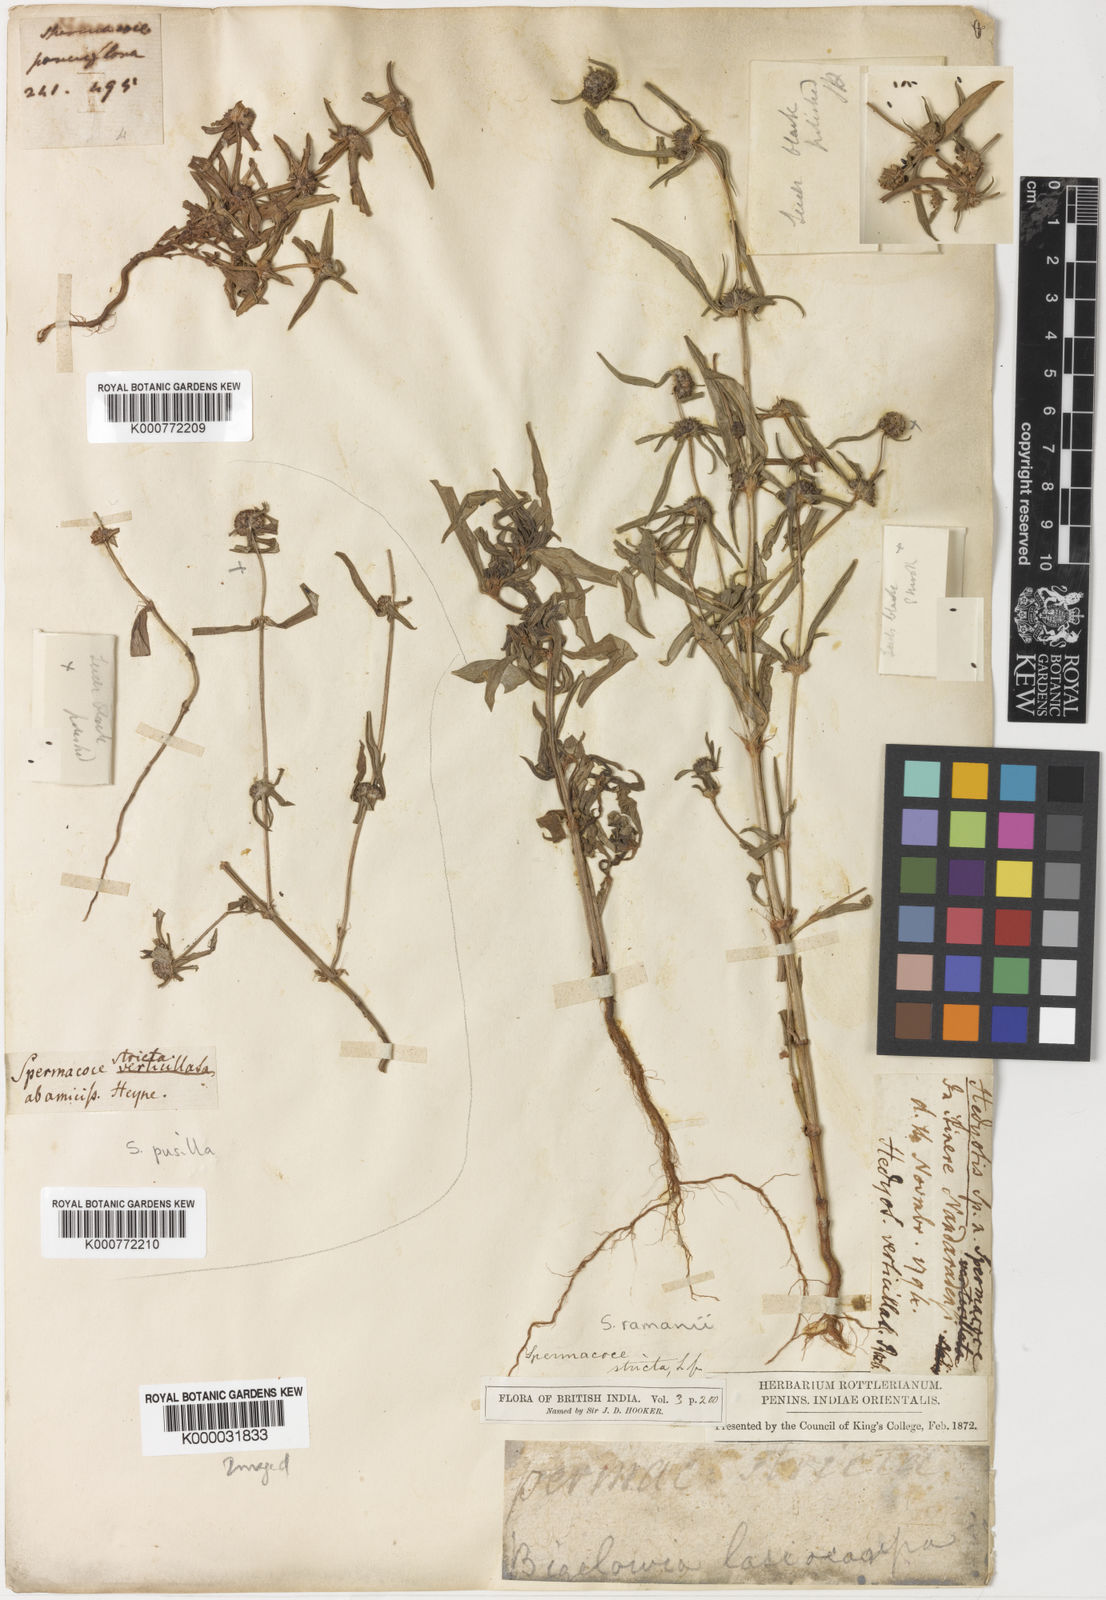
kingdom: Plantae
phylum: Tracheophyta
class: Magnoliopsida
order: Gentianales
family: Rubiaceae
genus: Spermacoce
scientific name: Spermacoce lasiocarpa
